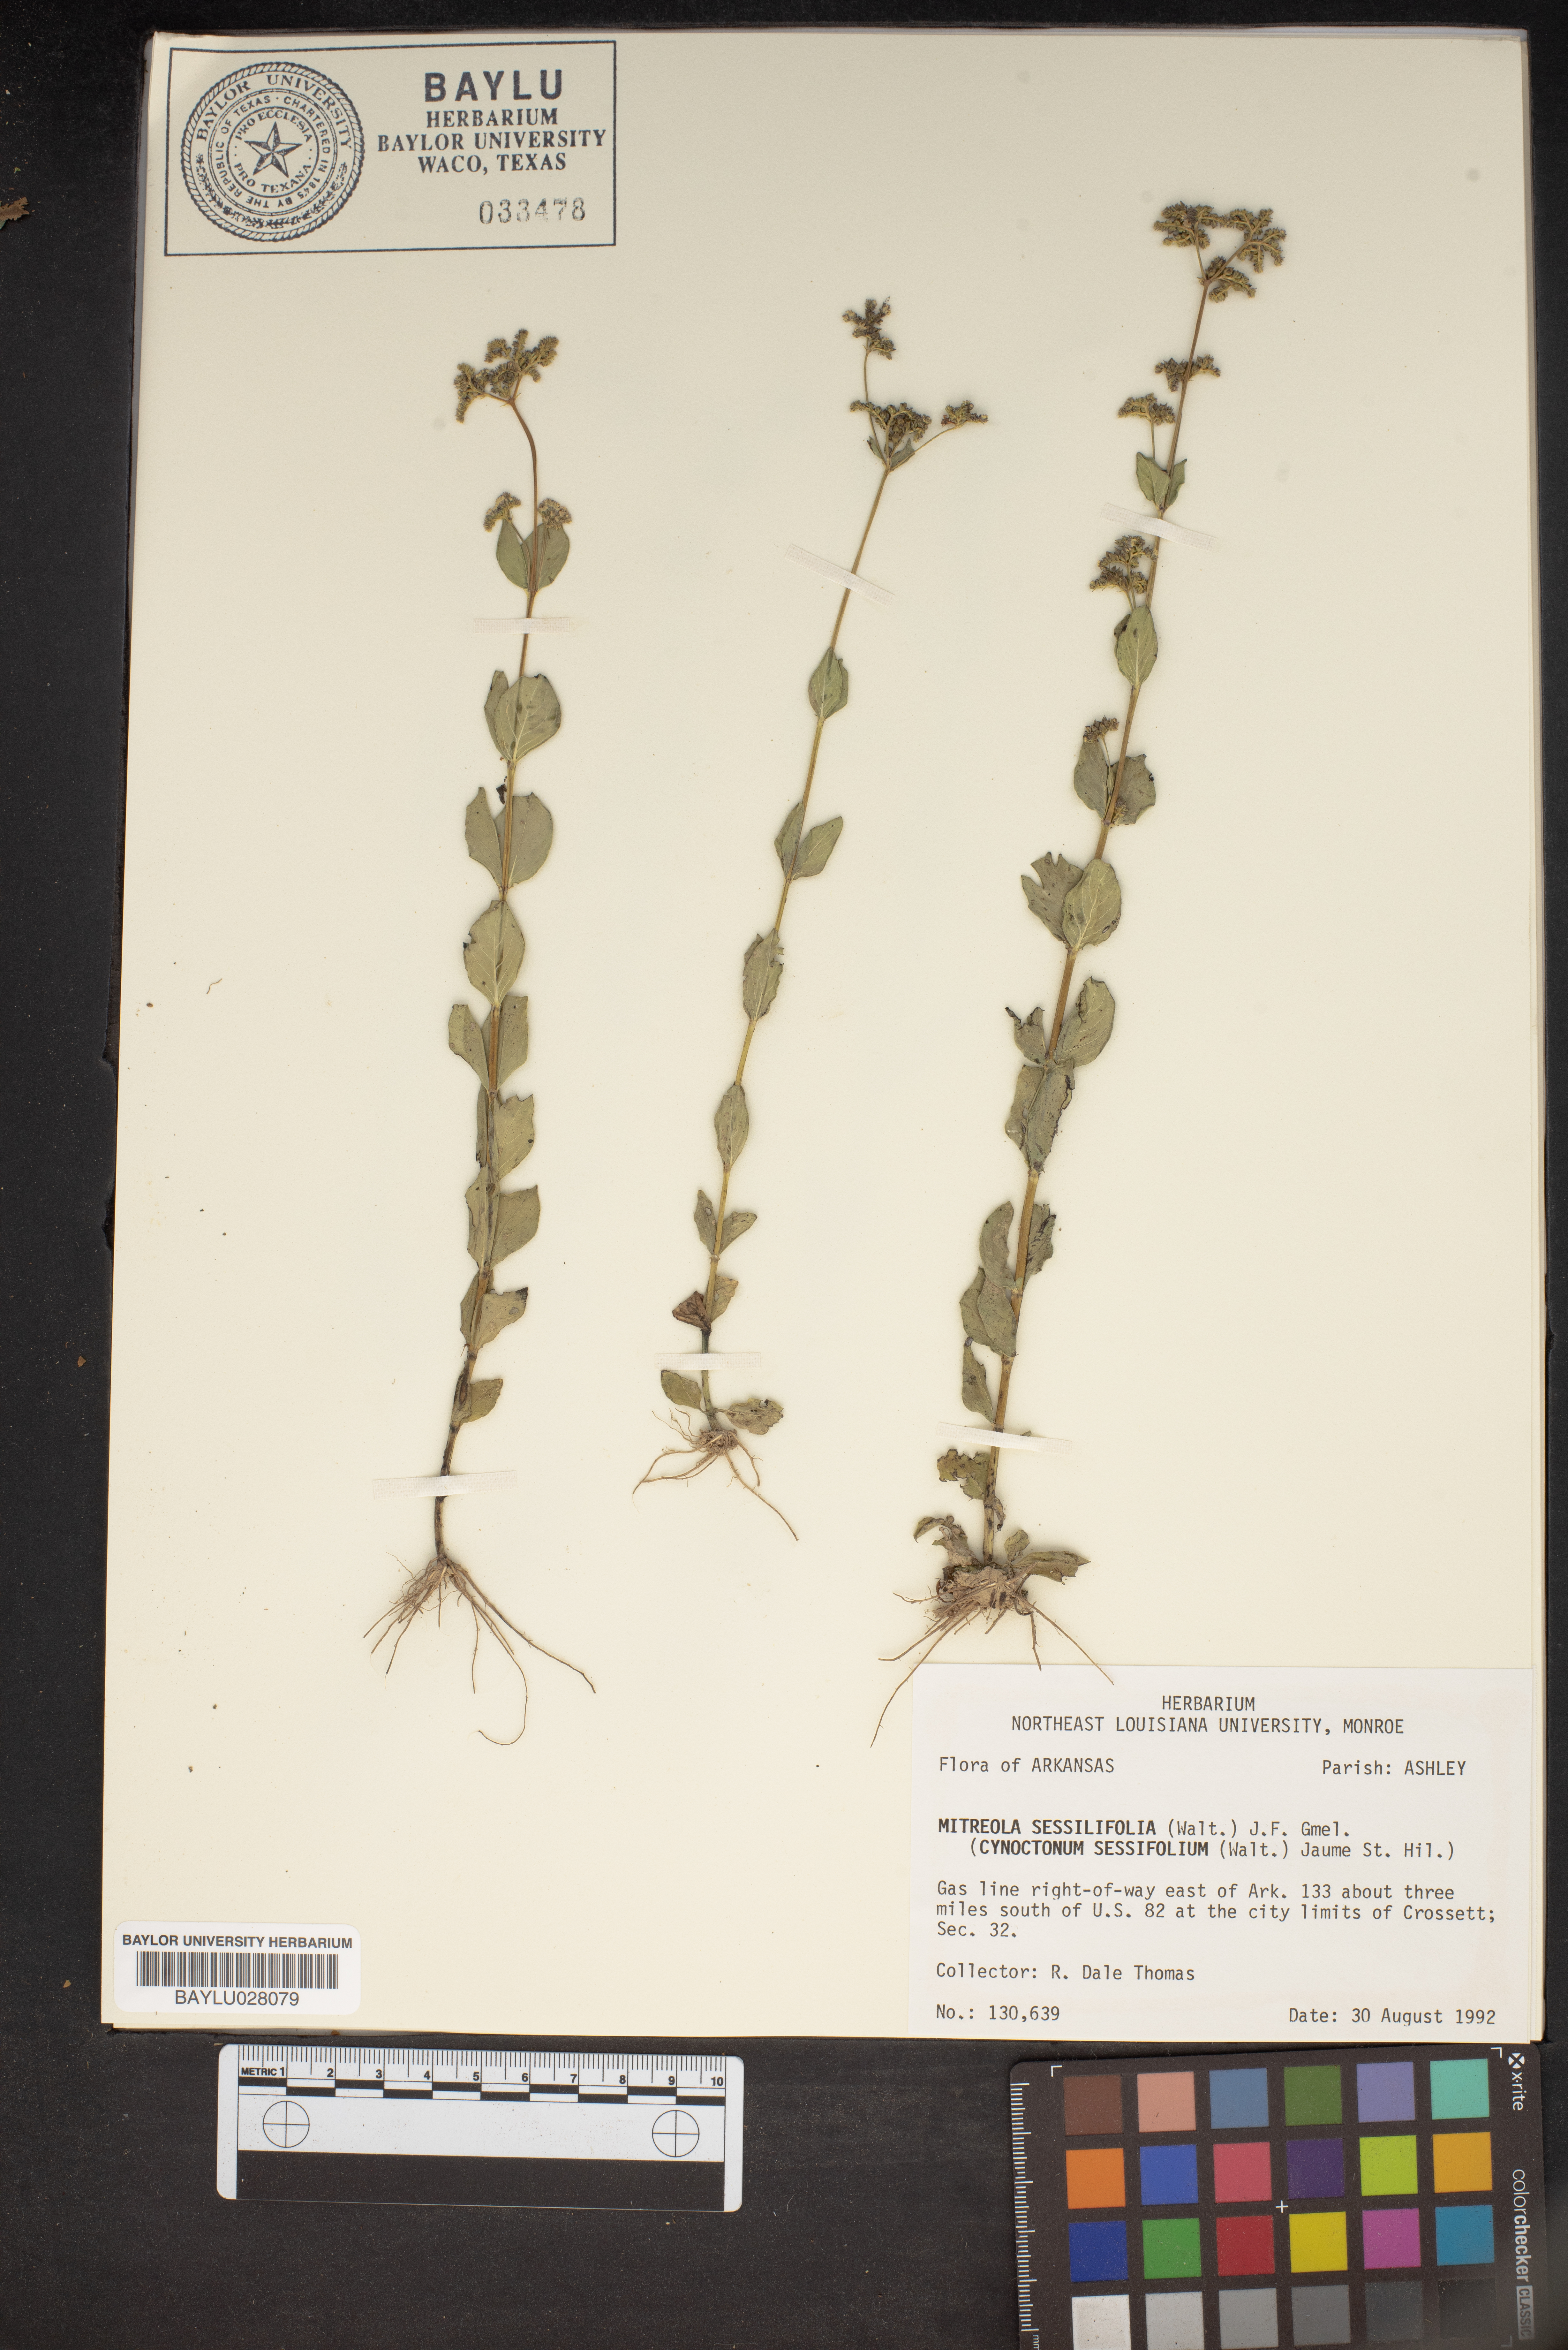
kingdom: Plantae
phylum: Tracheophyta
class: Magnoliopsida
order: Gentianales
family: Loganiaceae
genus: Mitreola
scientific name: Mitreola sessilifolia
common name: Swamp hornpod
